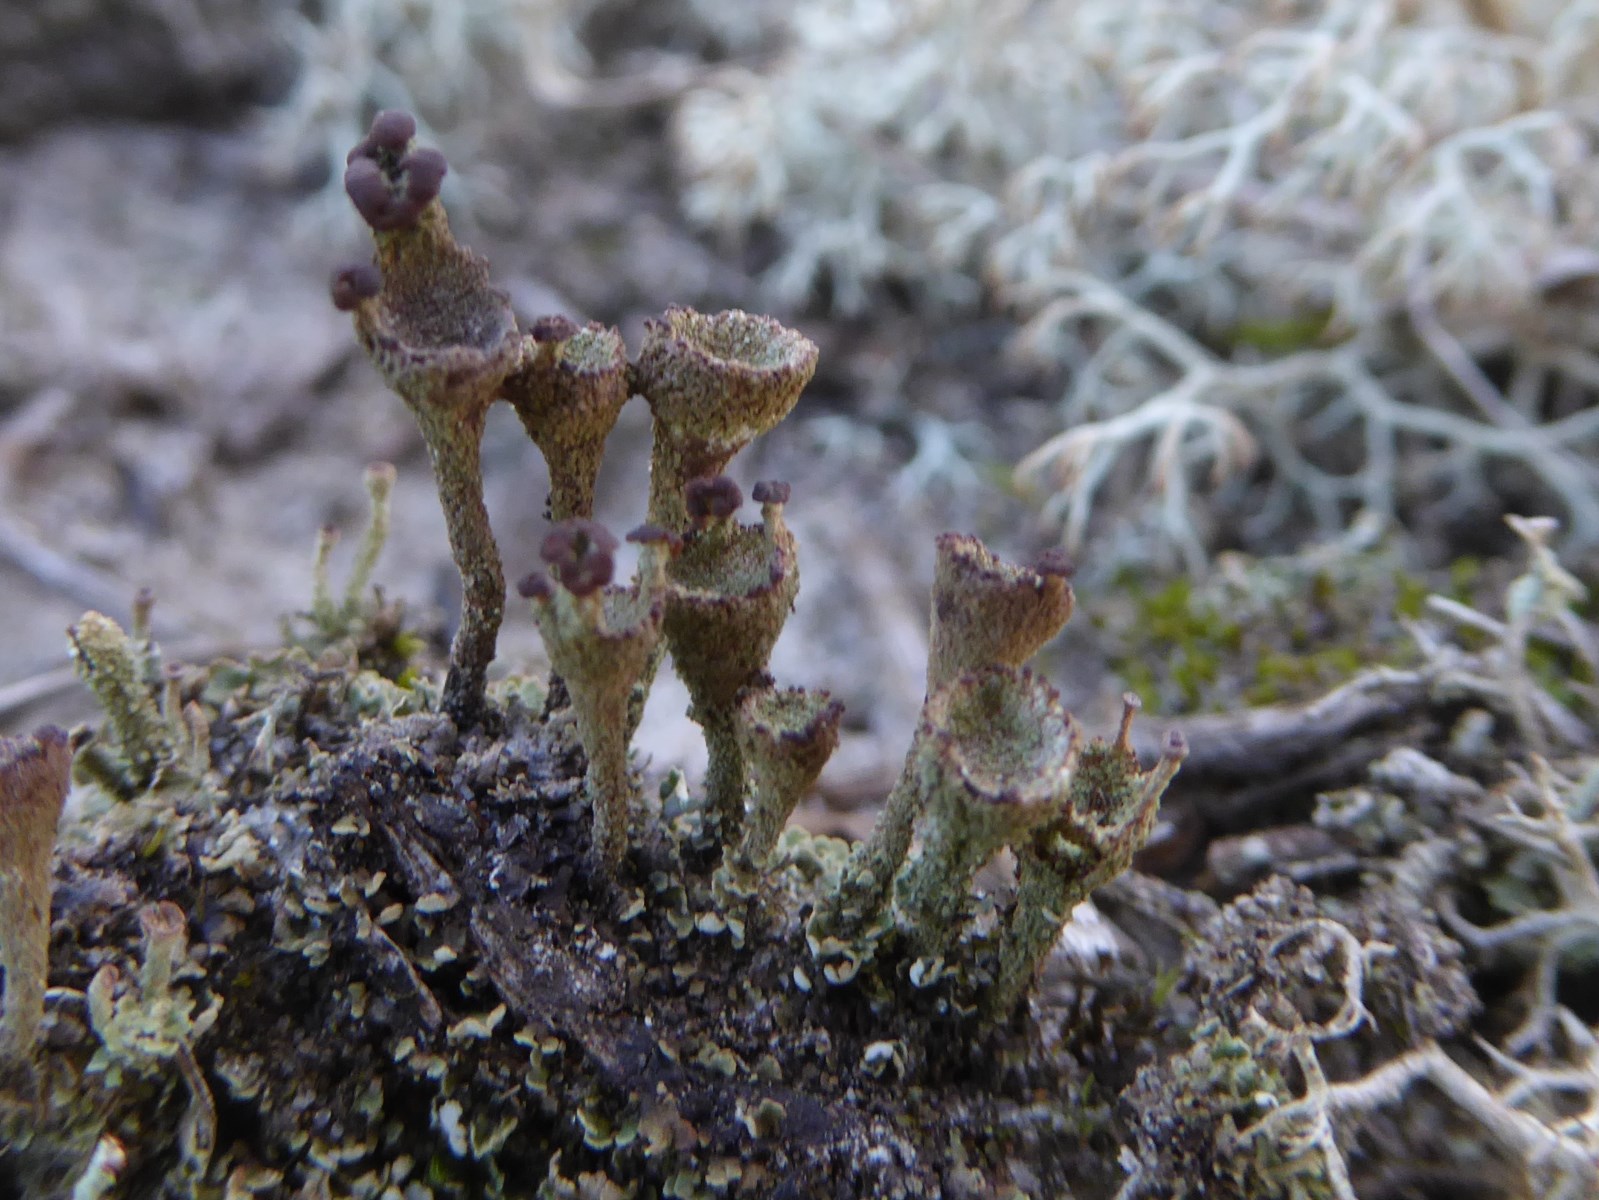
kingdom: Fungi
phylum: Ascomycota
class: Lecanoromycetes
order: Lecanorales
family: Cladoniaceae
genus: Cladonia
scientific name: Cladonia
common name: brungrøn bægerlav
